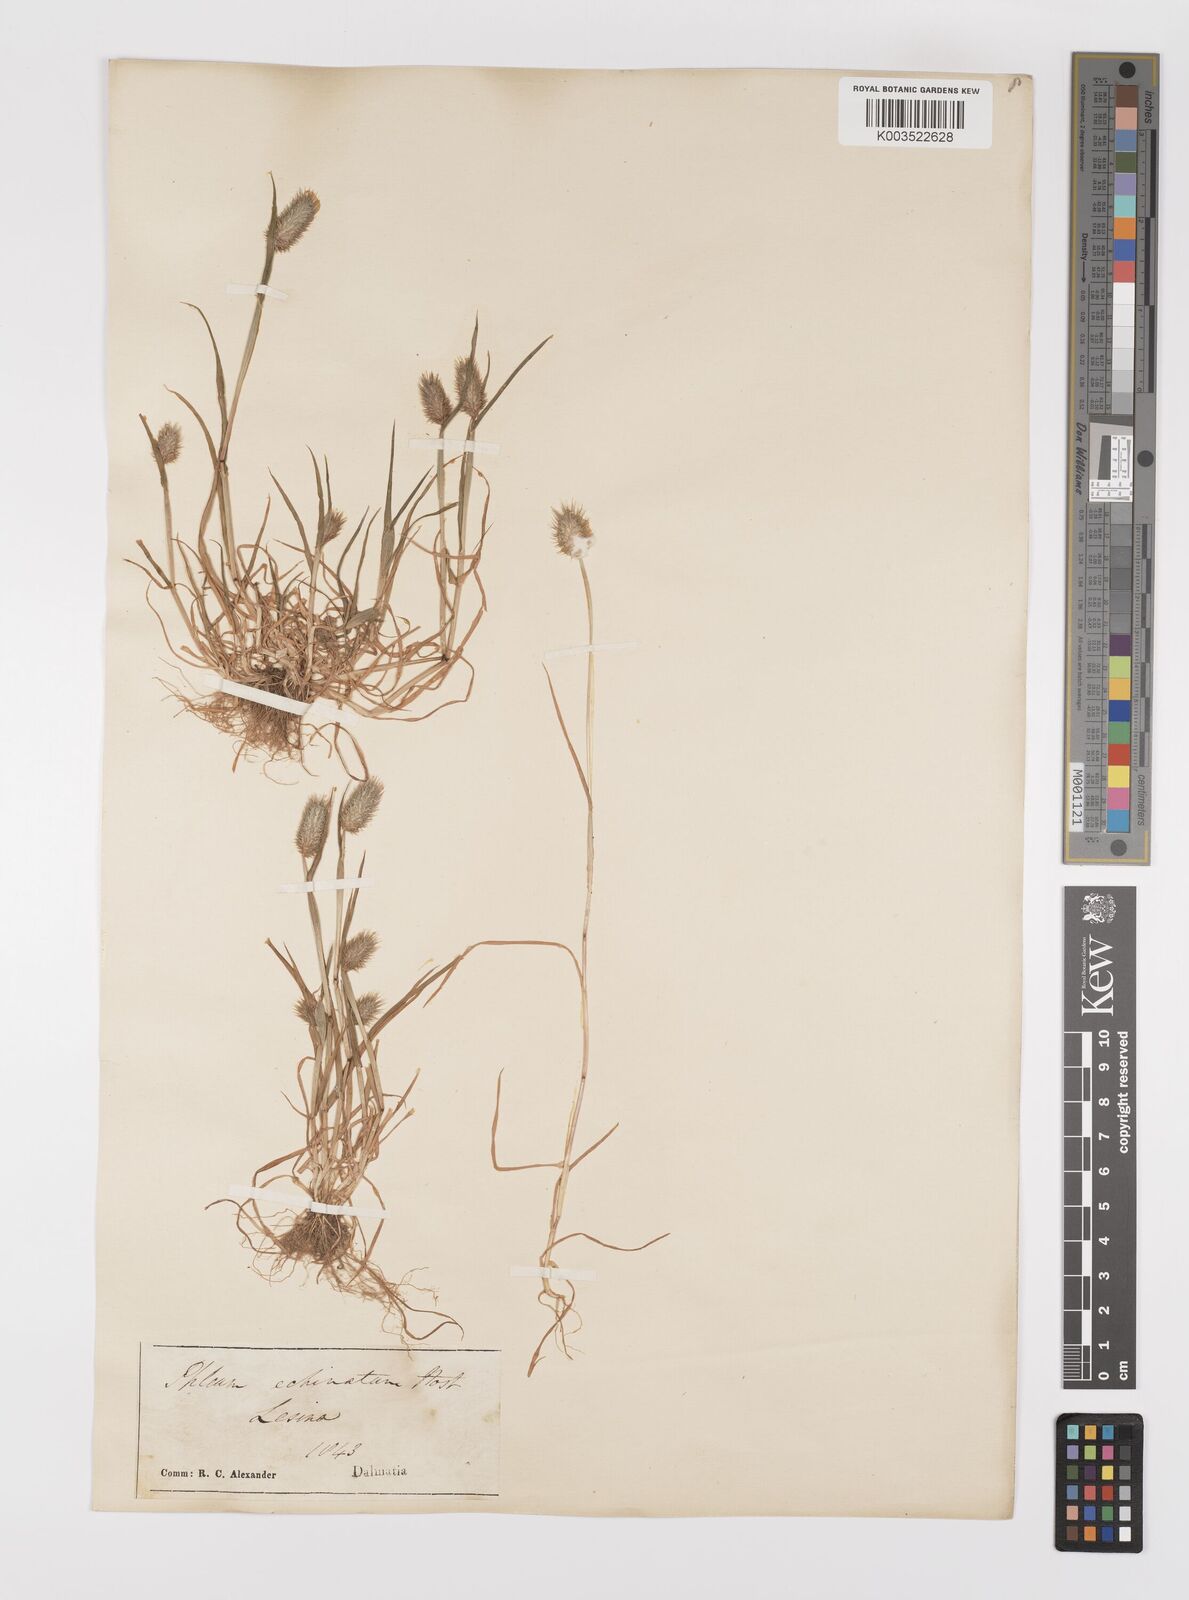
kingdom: Plantae
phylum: Tracheophyta
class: Liliopsida
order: Poales
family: Poaceae
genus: Phleum
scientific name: Phleum echinatum
